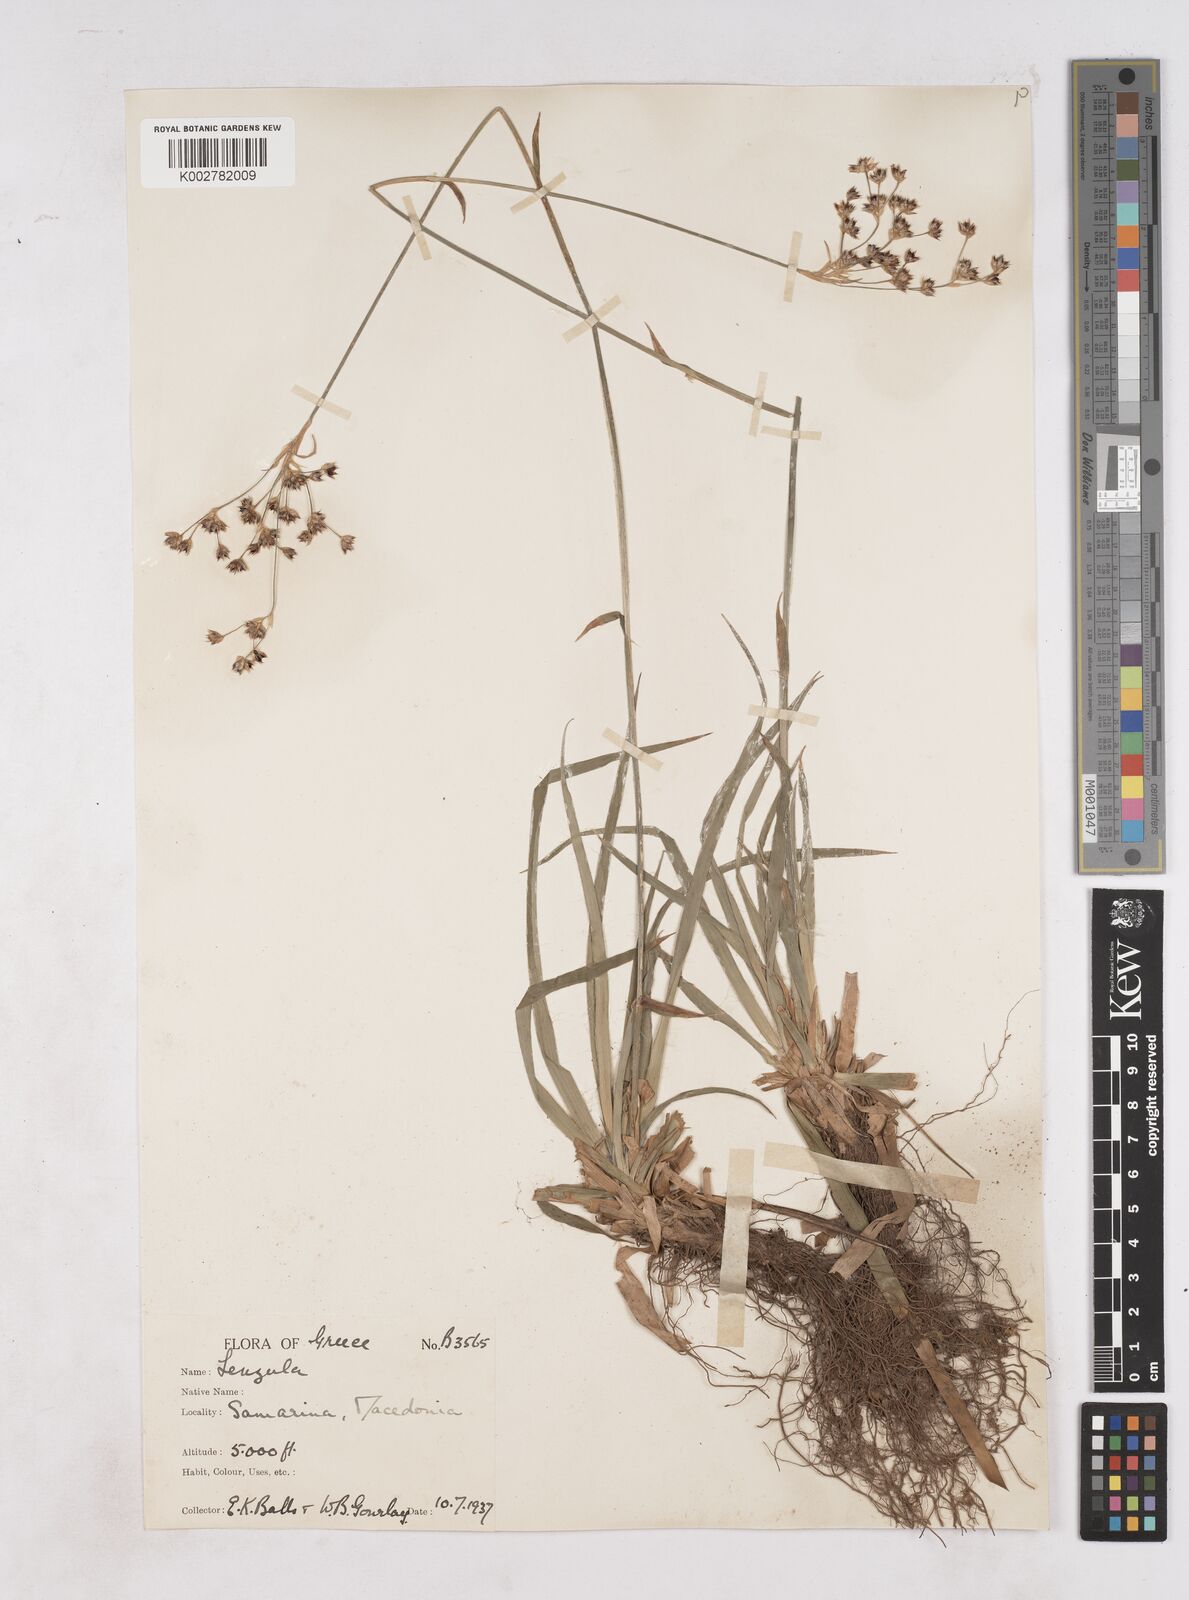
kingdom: Plantae
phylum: Tracheophyta
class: Liliopsida
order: Poales
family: Juncaceae
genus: Luzula
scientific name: Luzula sylvatica
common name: Great wood-rush
